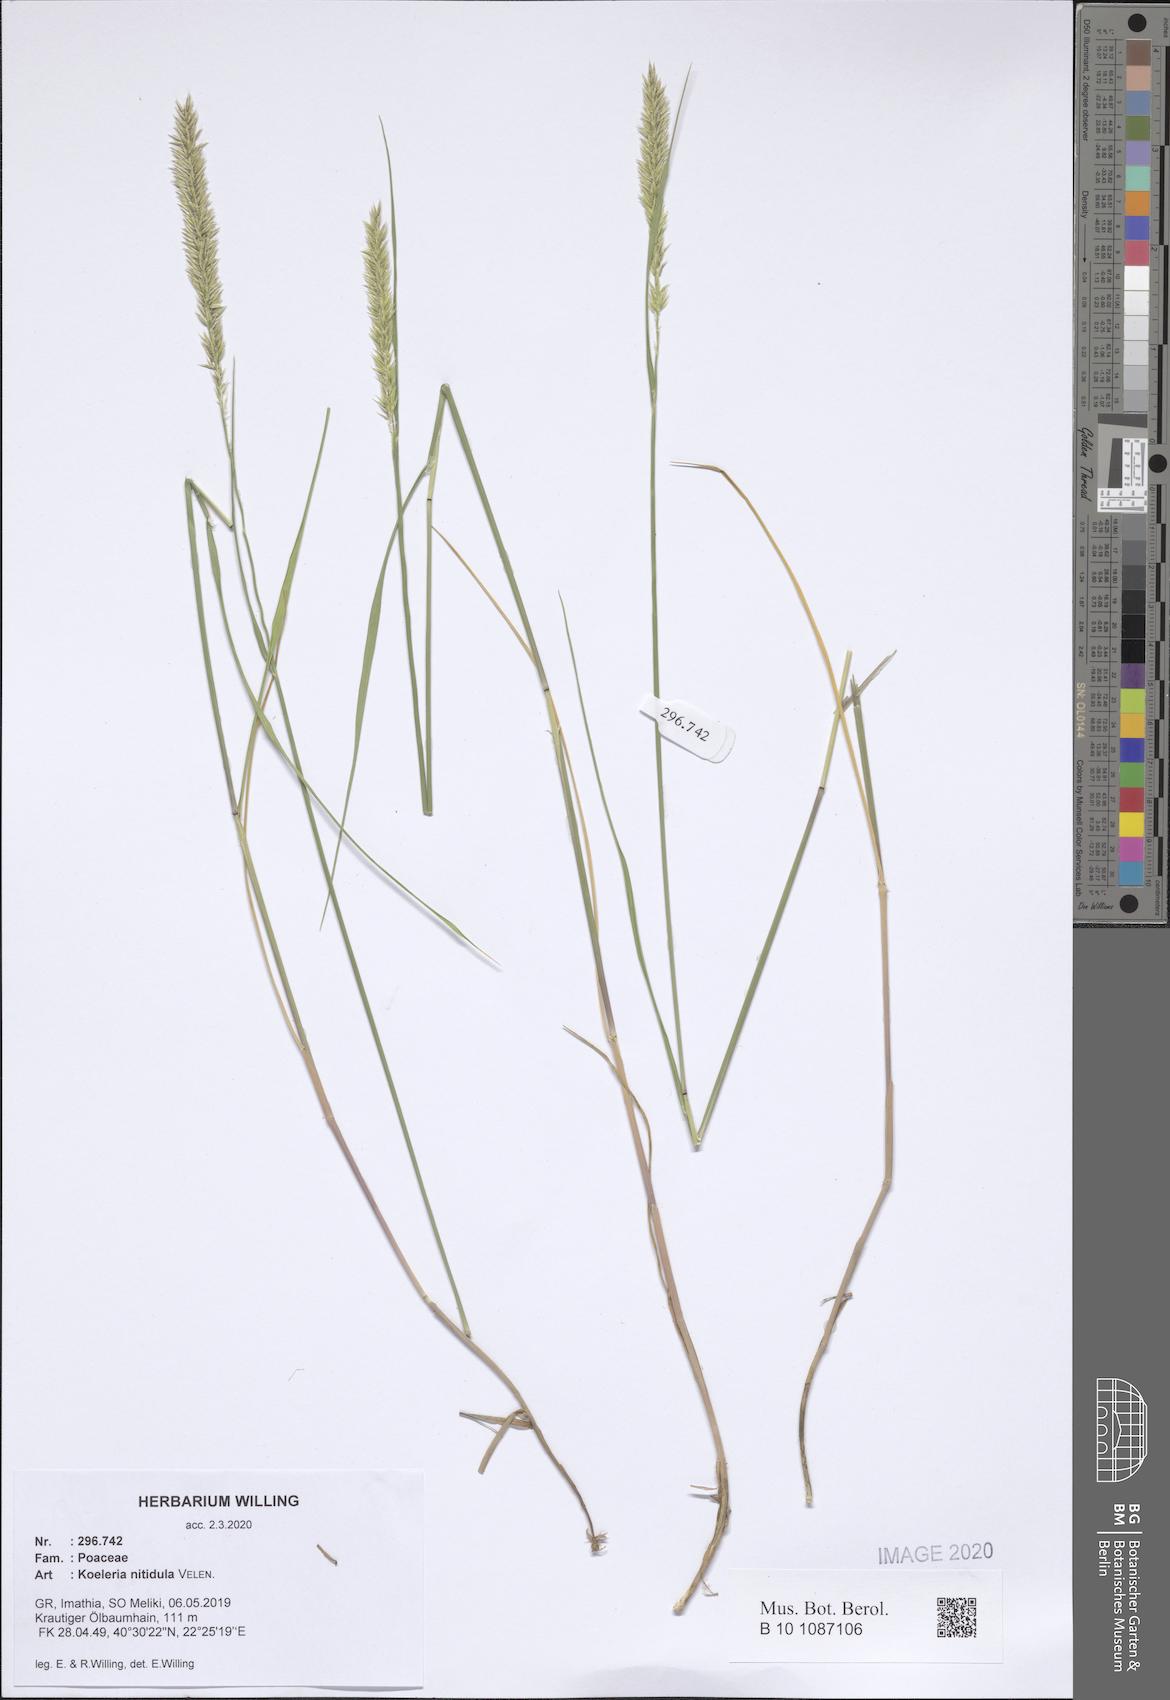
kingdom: Plantae
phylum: Tracheophyta
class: Liliopsida
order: Poales
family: Poaceae
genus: Koeleria
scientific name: Koeleria nitidula
